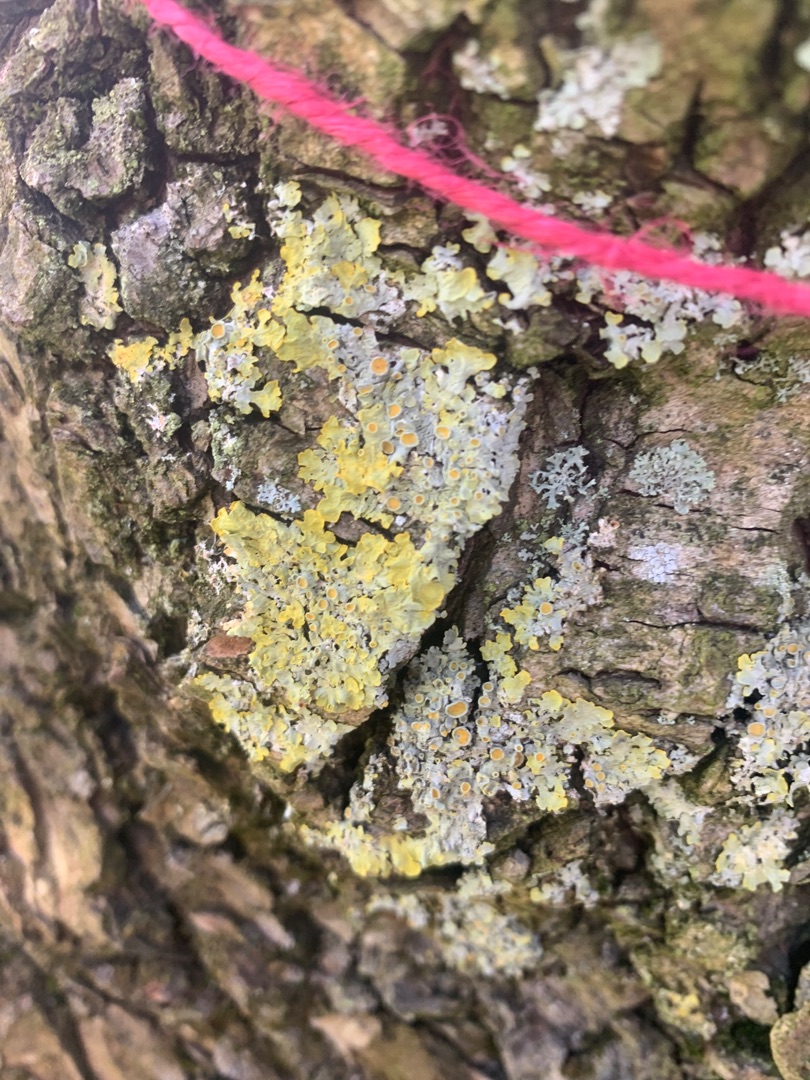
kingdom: Fungi
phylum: Ascomycota
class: Lecanoromycetes
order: Teloschistales
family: Teloschistaceae
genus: Xanthoria
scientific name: Xanthoria parietina
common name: Almindelig væggelav
